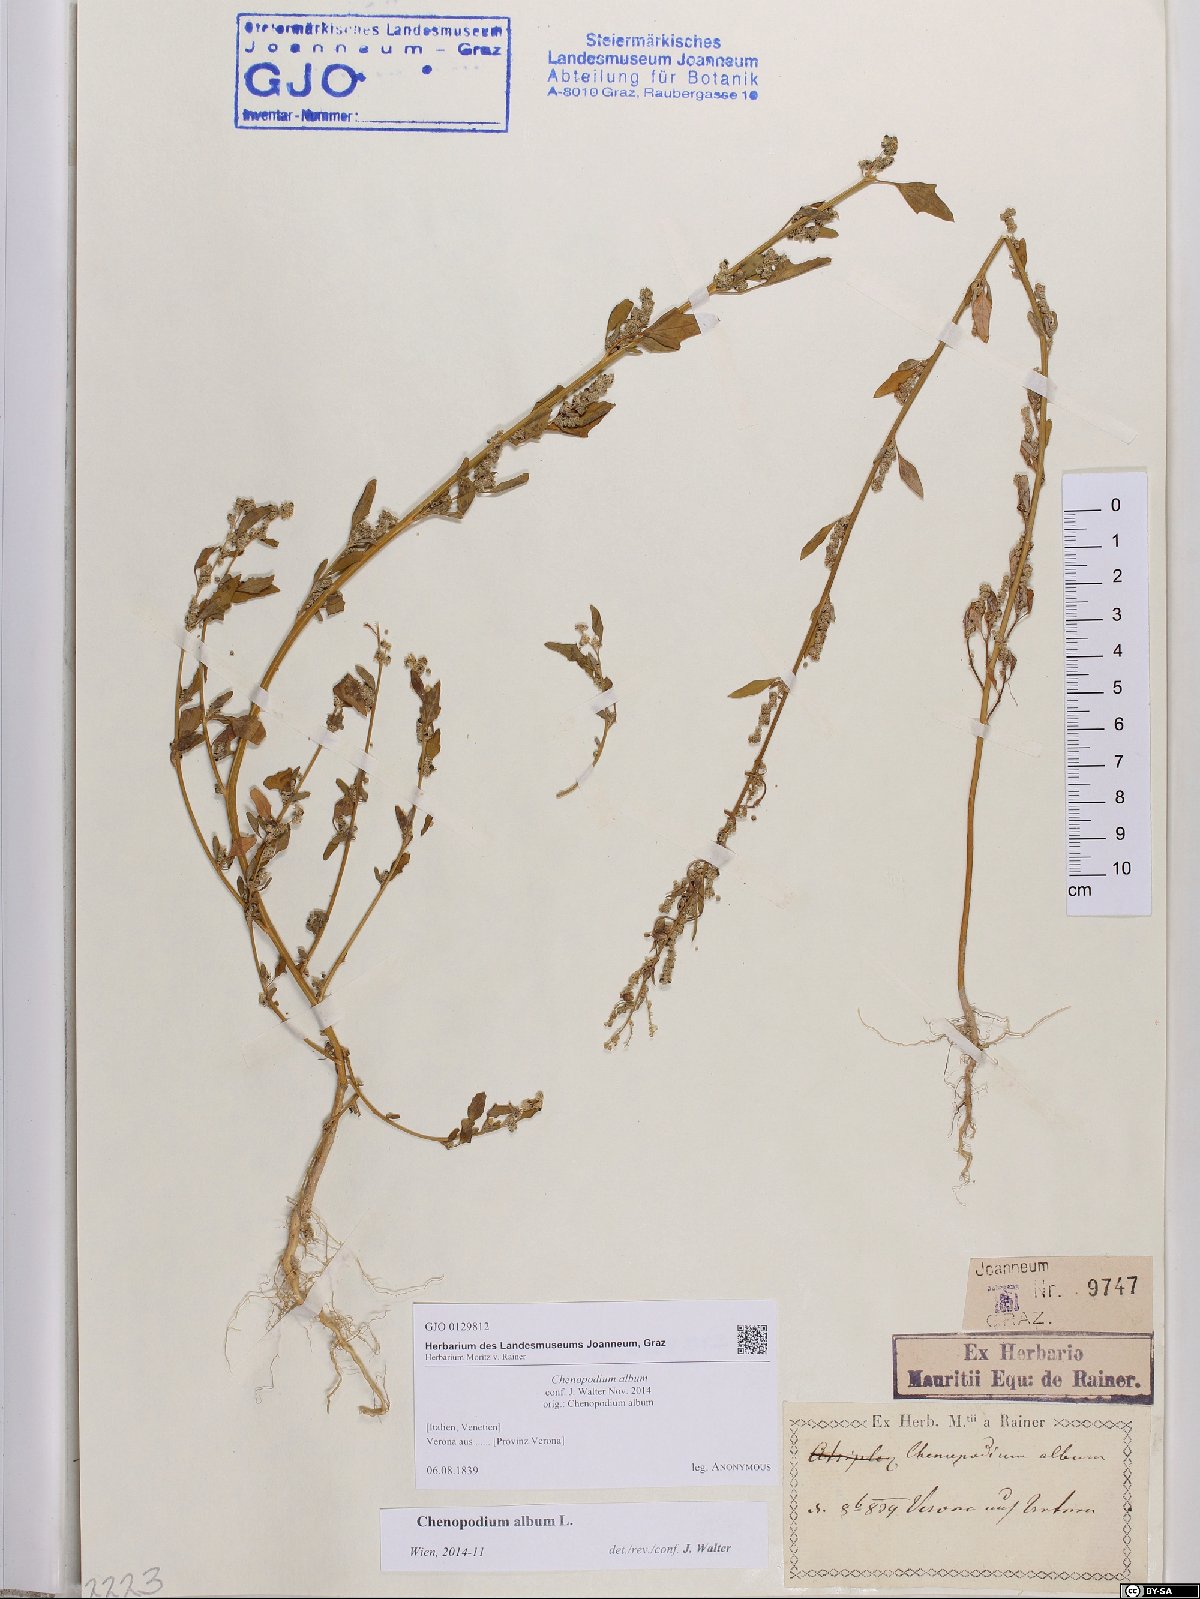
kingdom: Plantae
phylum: Tracheophyta
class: Magnoliopsida
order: Caryophyllales
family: Amaranthaceae
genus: Chenopodium
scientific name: Chenopodium album
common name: Fat-hen
